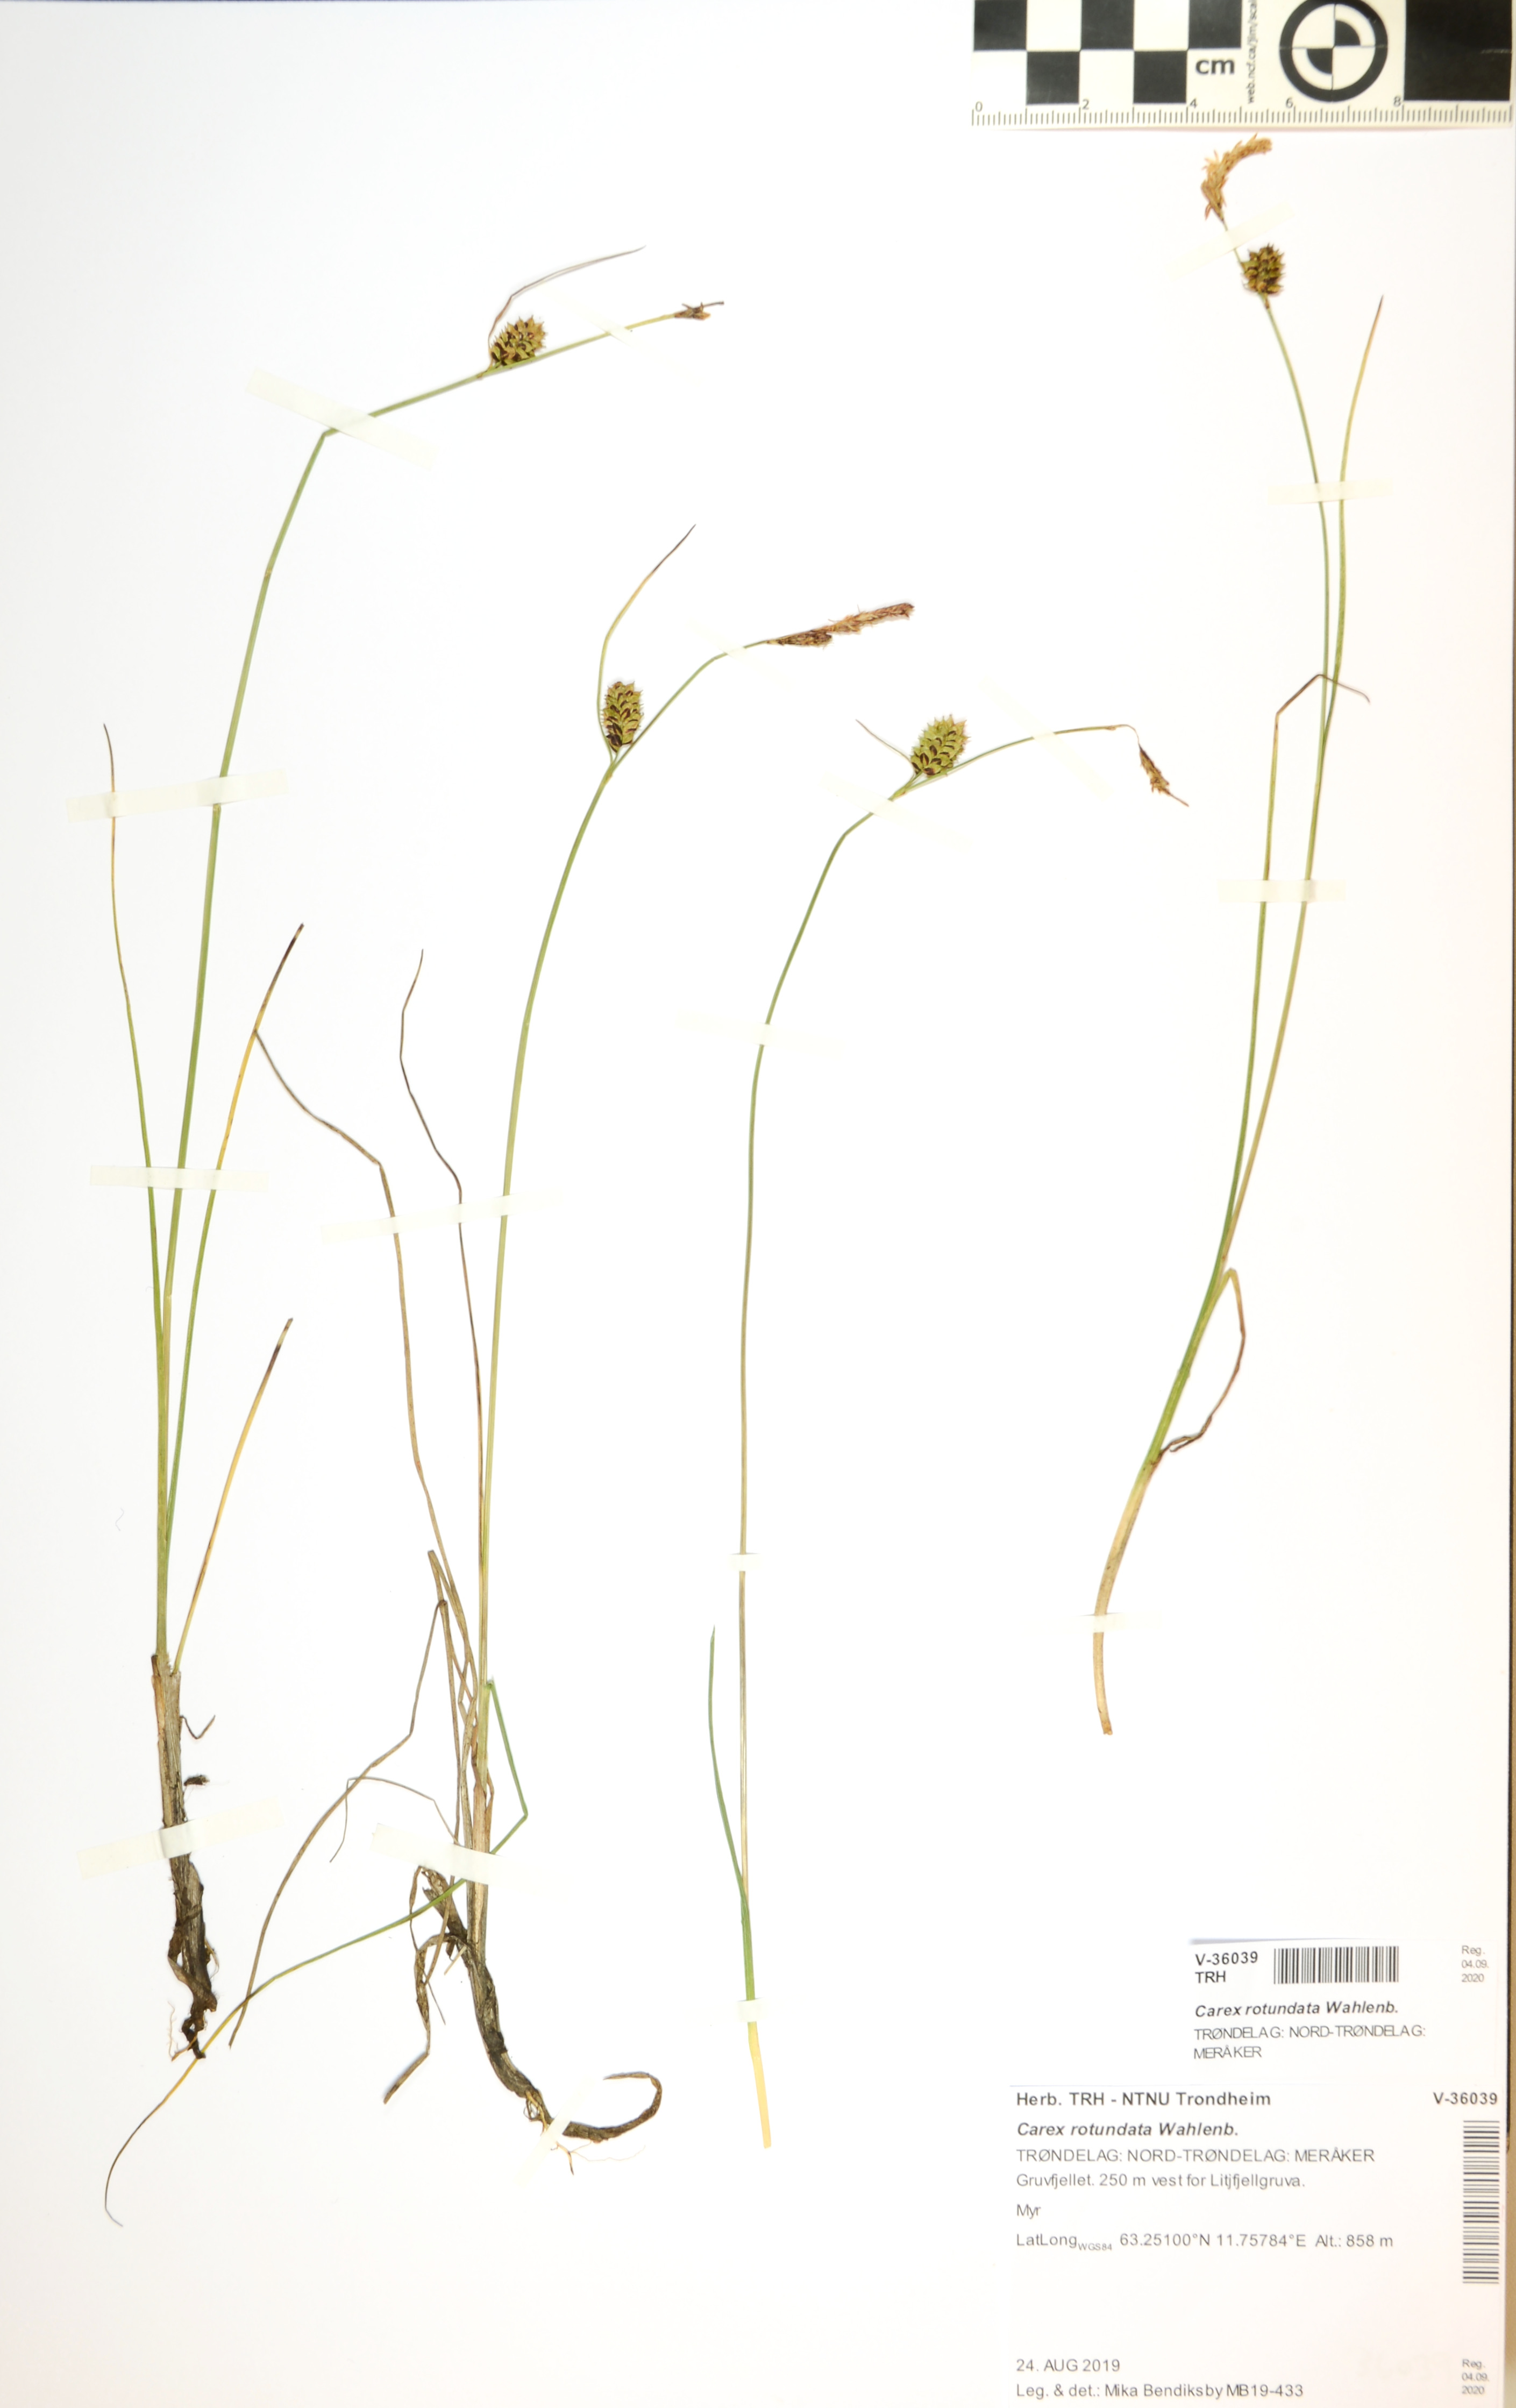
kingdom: Plantae
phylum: Tracheophyta
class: Liliopsida
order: Poales
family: Cyperaceae
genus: Carex
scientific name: Carex rotundata
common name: Round-fruited sedge
